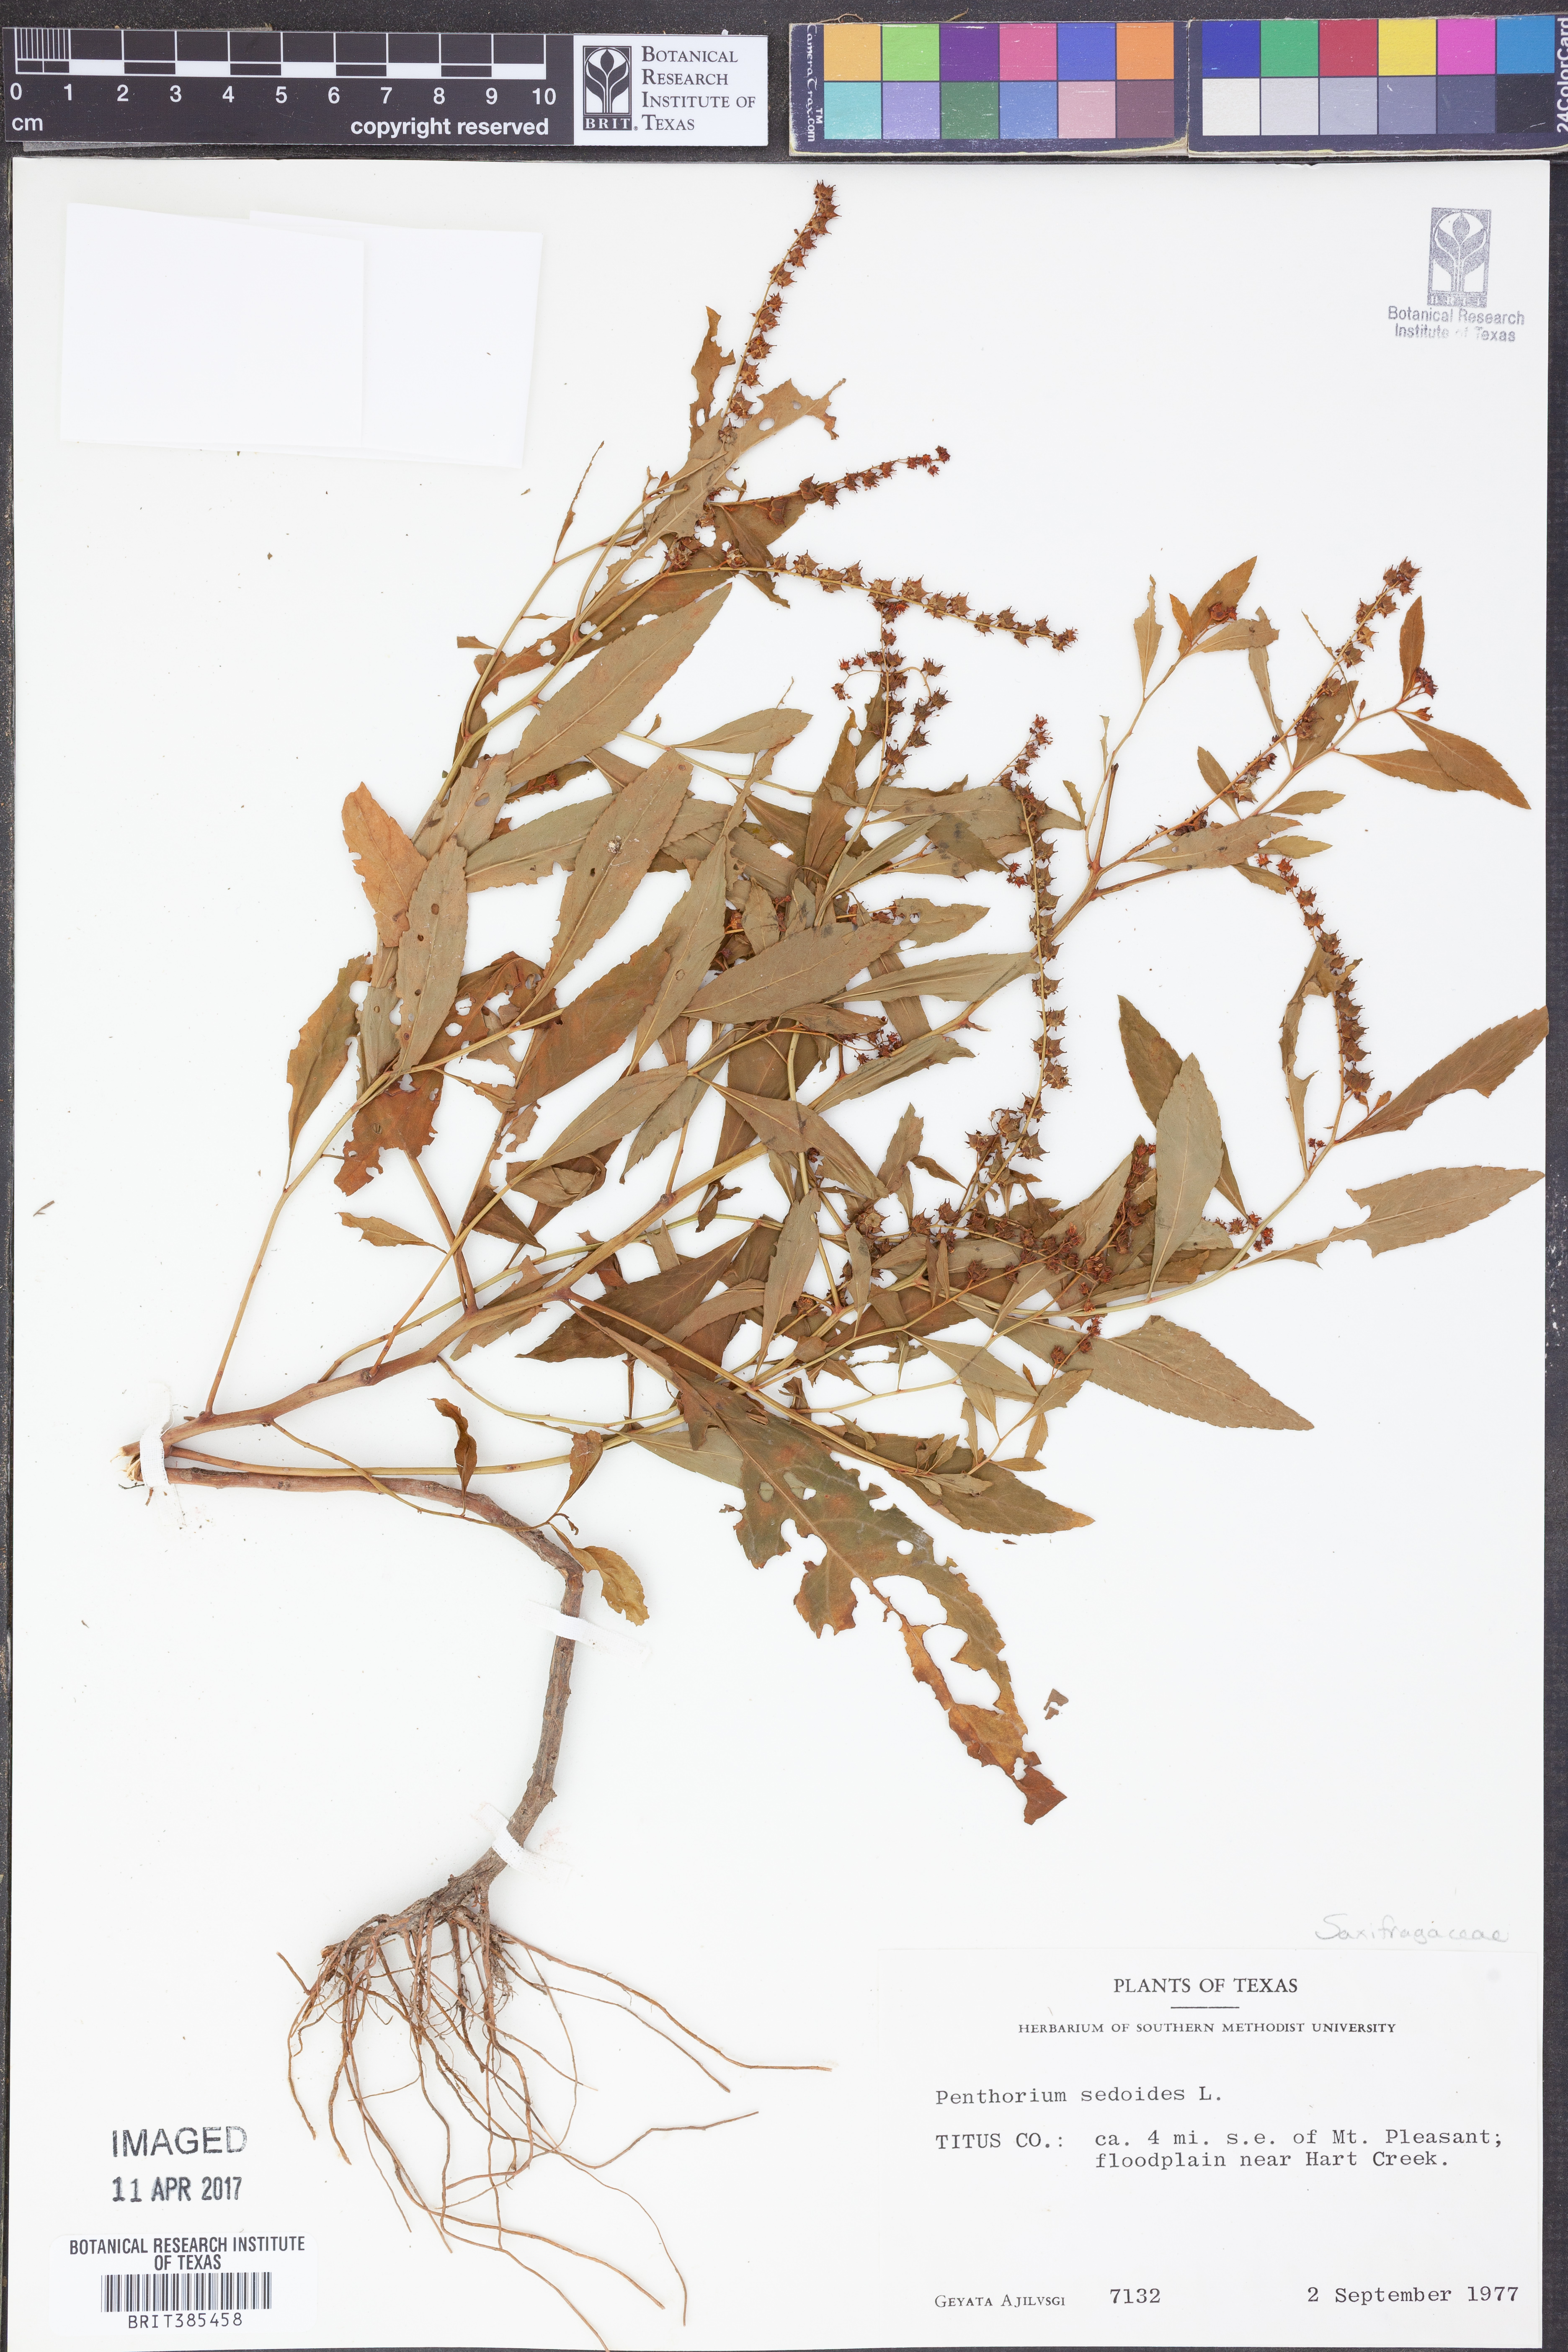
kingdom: Plantae
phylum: Tracheophyta
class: Magnoliopsida
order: Saxifragales
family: Penthoraceae
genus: Penthorum
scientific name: Penthorum sedoides
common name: Ditch stonecrop
